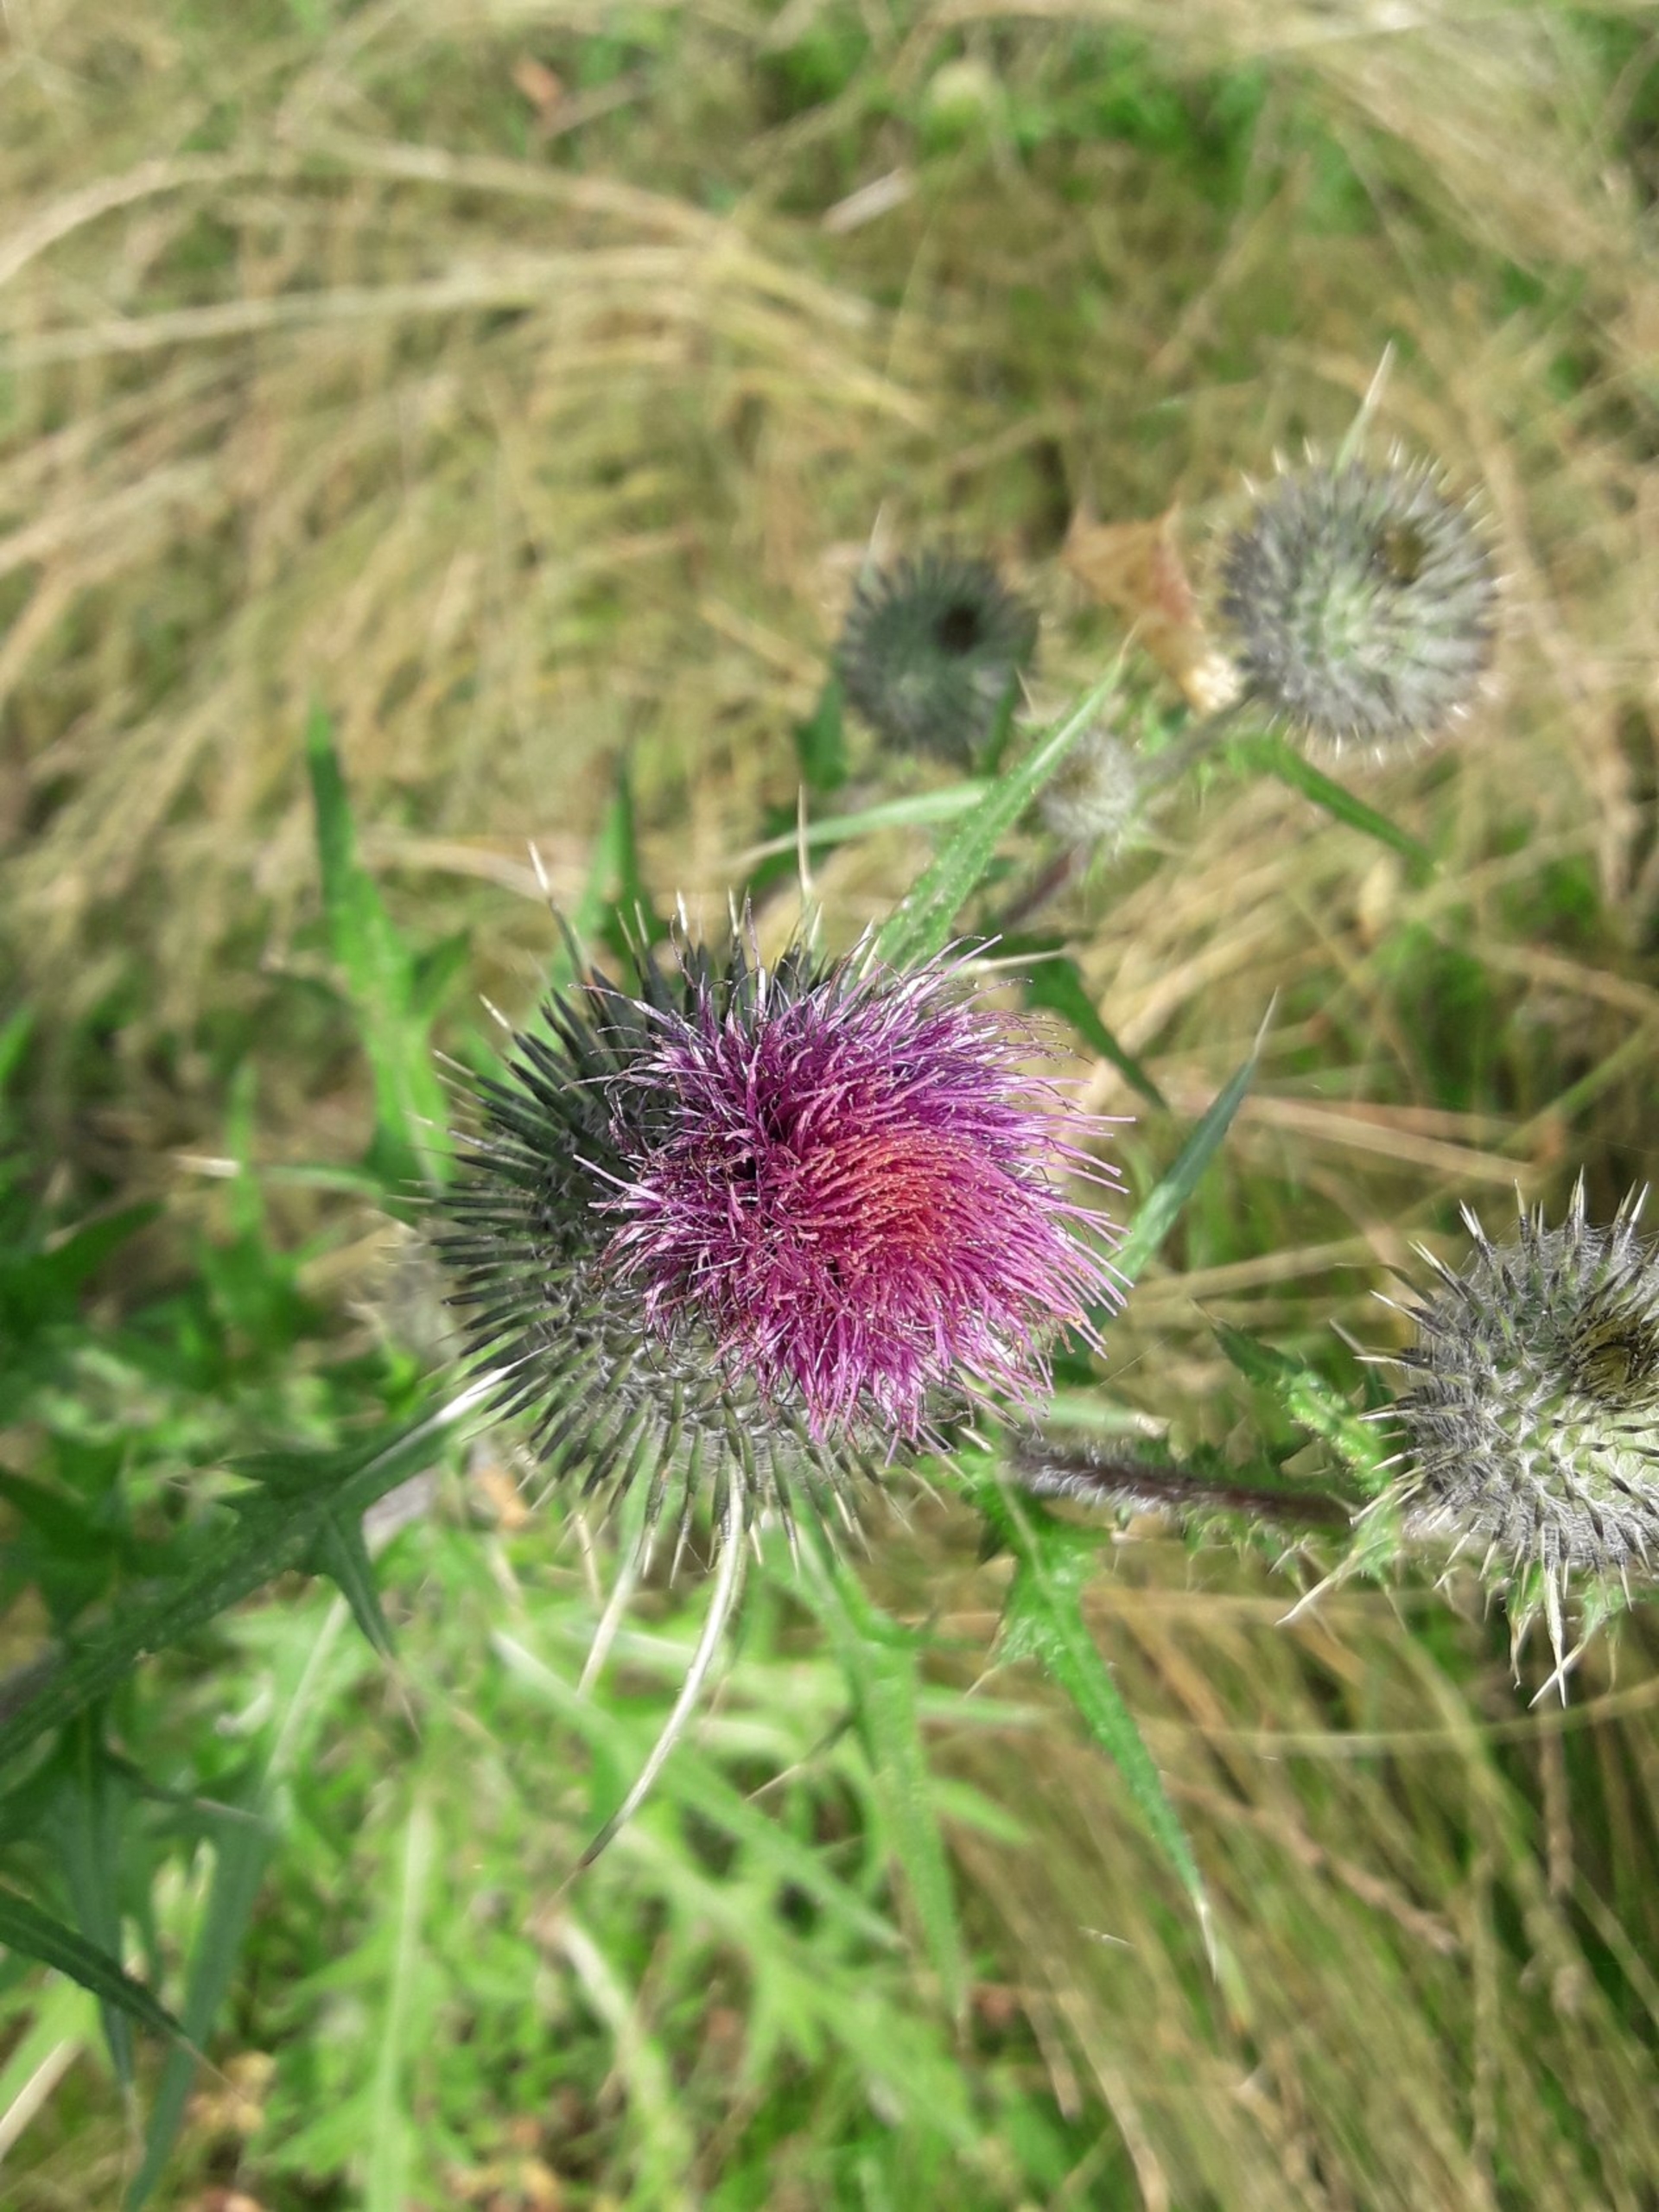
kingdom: Plantae
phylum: Tracheophyta
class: Magnoliopsida
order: Asterales
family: Asteraceae
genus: Cirsium
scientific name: Cirsium vulgare
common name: Horse-tidsel
